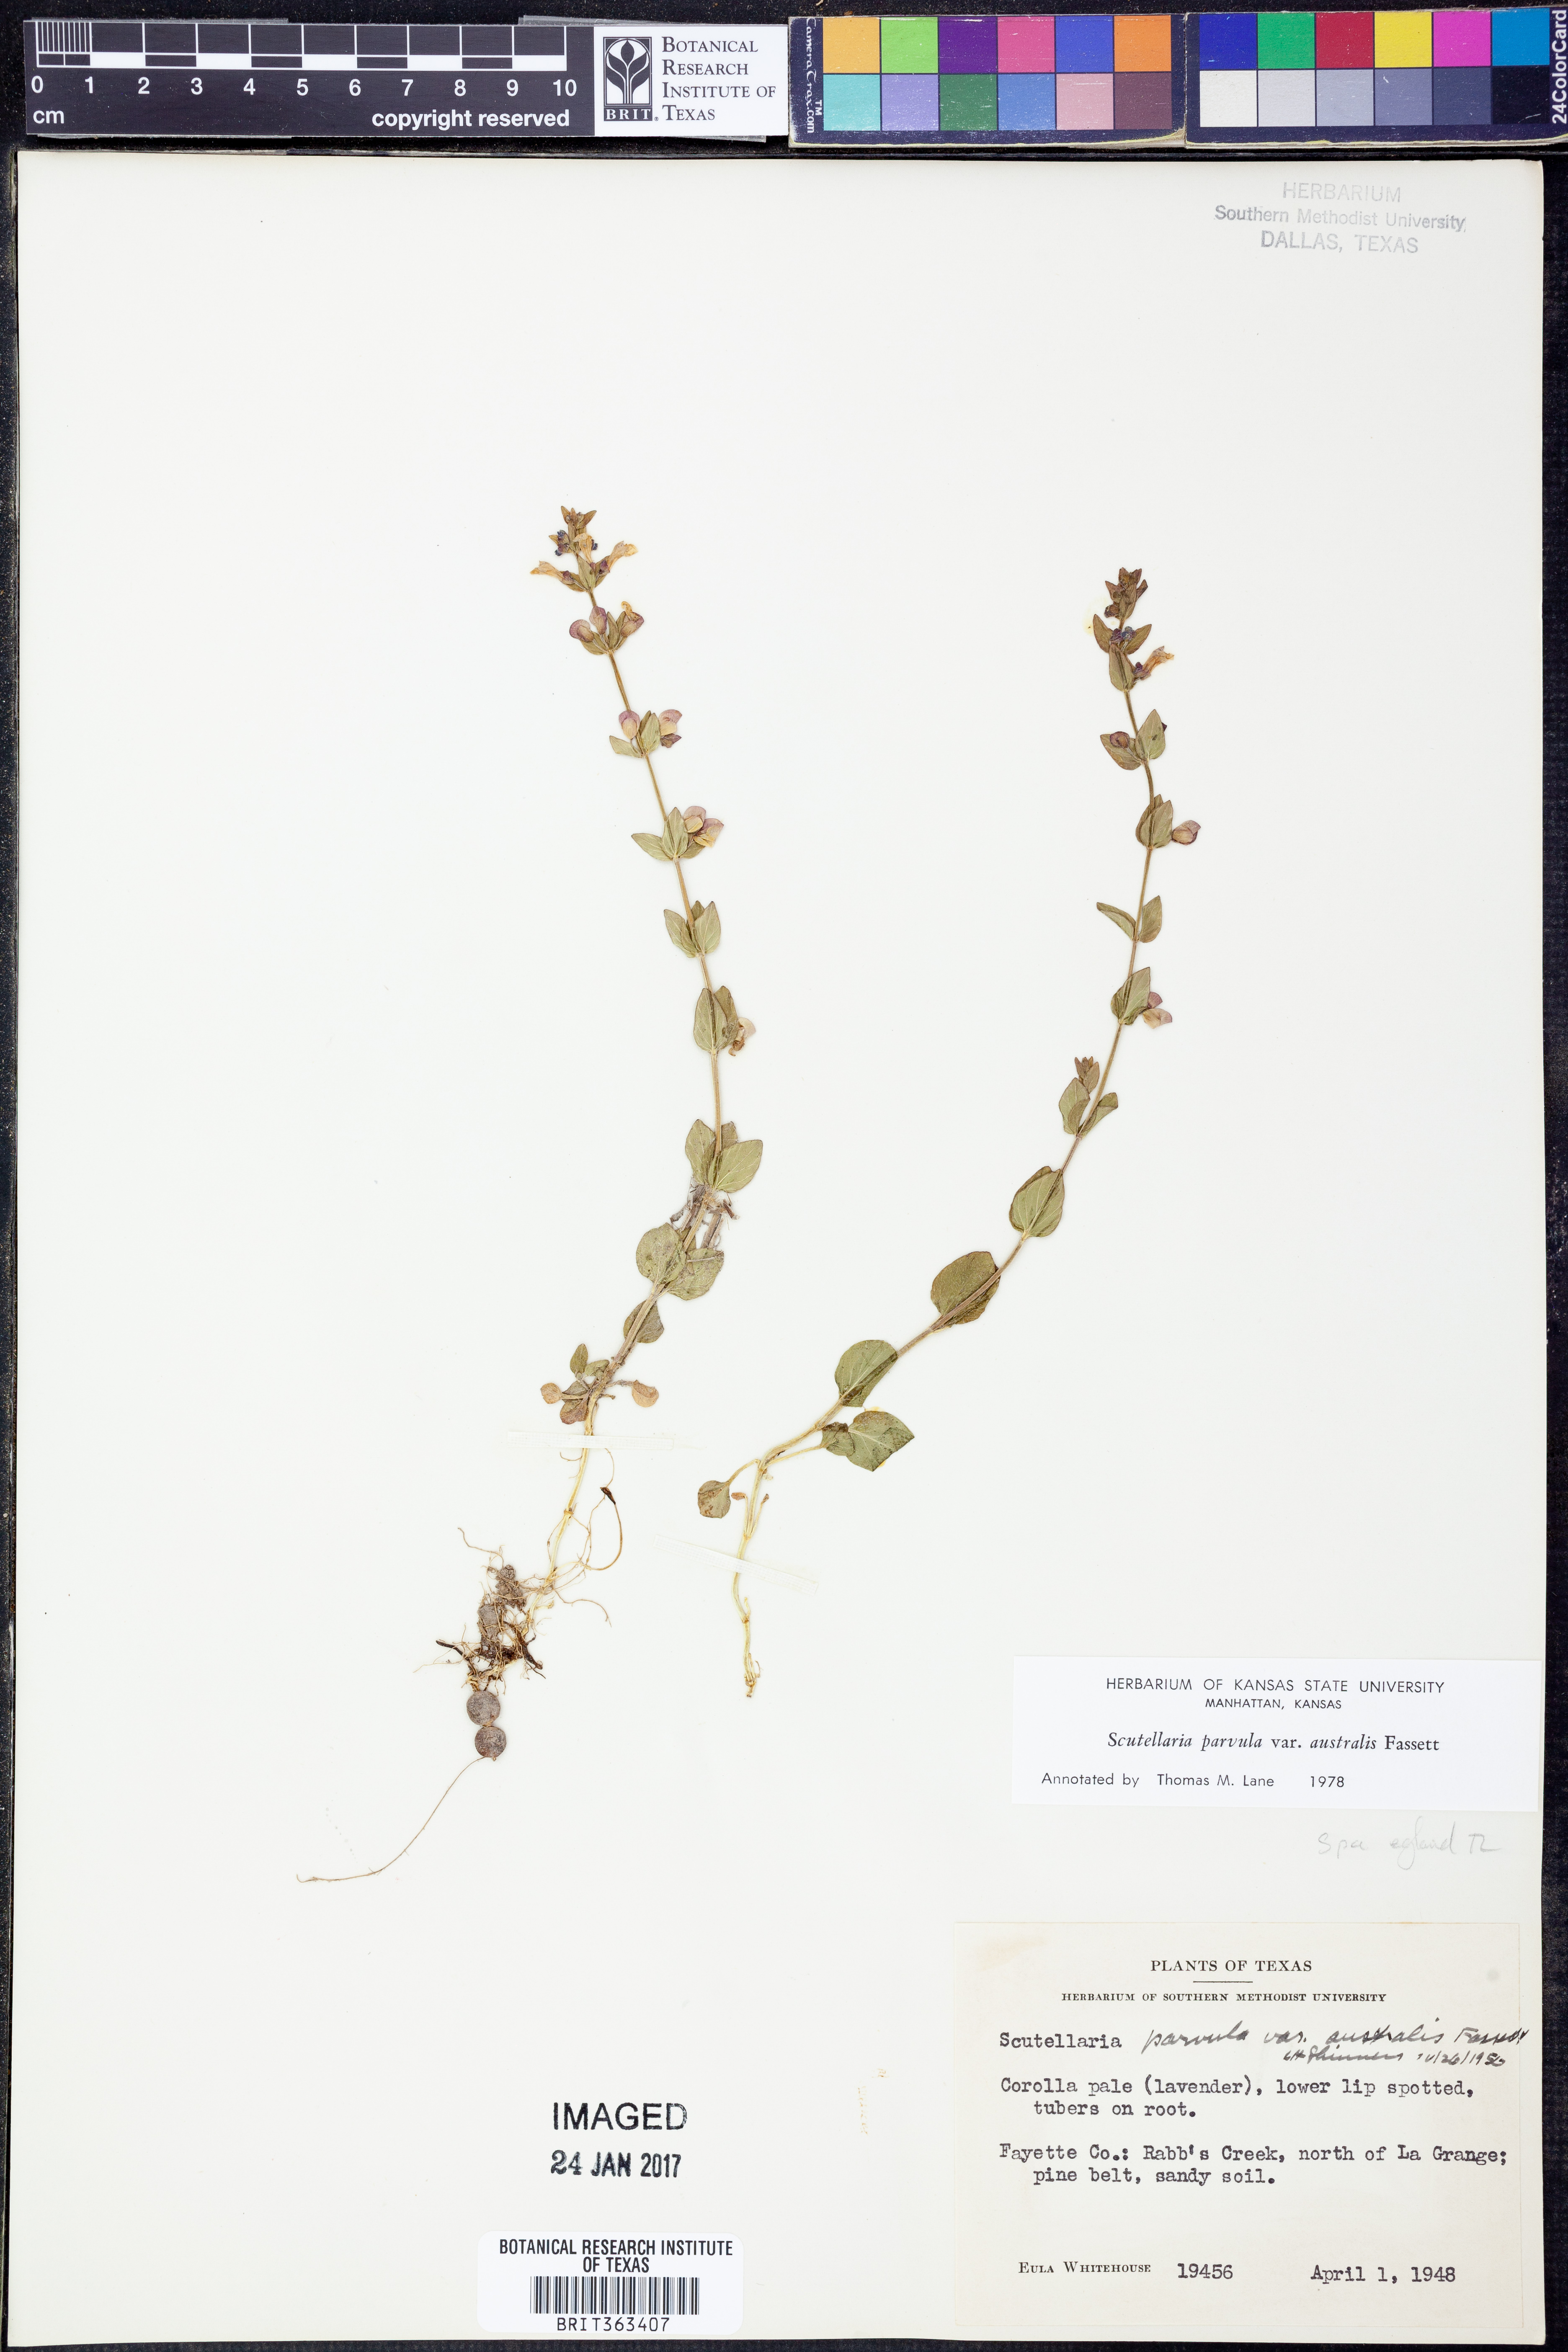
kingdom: Plantae
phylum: Tracheophyta
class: Magnoliopsida
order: Lamiales
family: Lamiaceae
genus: Scutellaria
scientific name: Scutellaria parvula
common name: Little scullcap
